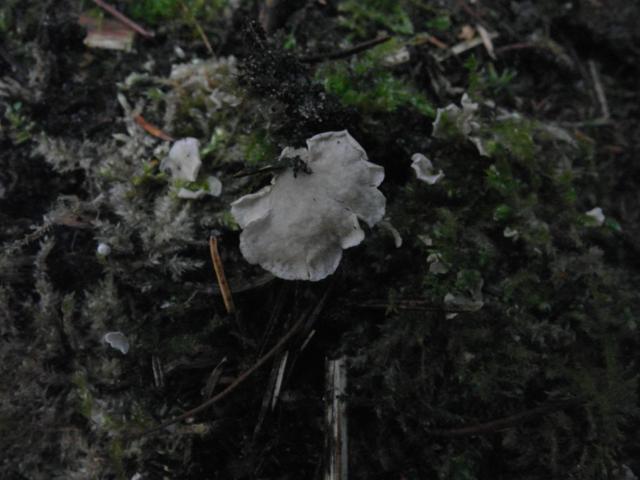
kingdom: Fungi
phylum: Basidiomycota
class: Agaricomycetes
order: Agaricales
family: Hygrophoraceae
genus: Arrhenia
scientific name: Arrhenia retiruga
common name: lille fontænehat
